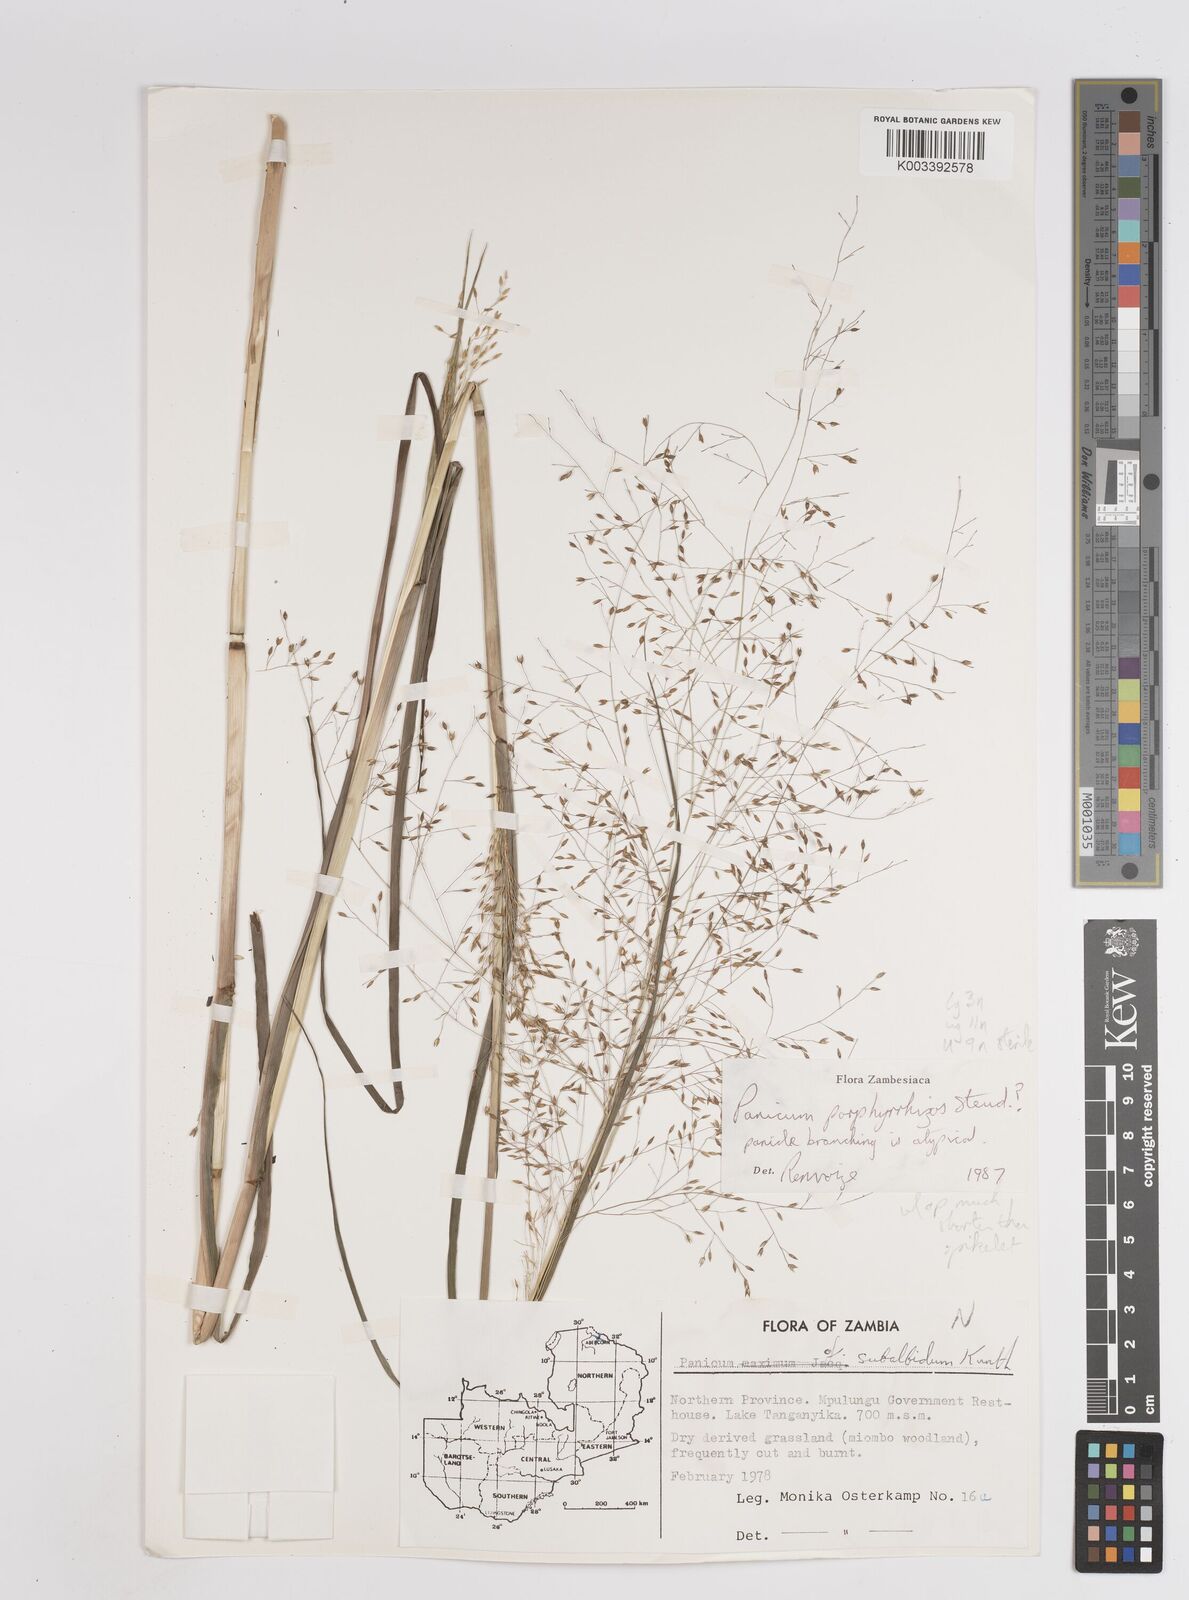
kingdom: Plantae
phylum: Tracheophyta
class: Liliopsida
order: Poales
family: Poaceae
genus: Panicum
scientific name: Panicum porphyrrhizos
